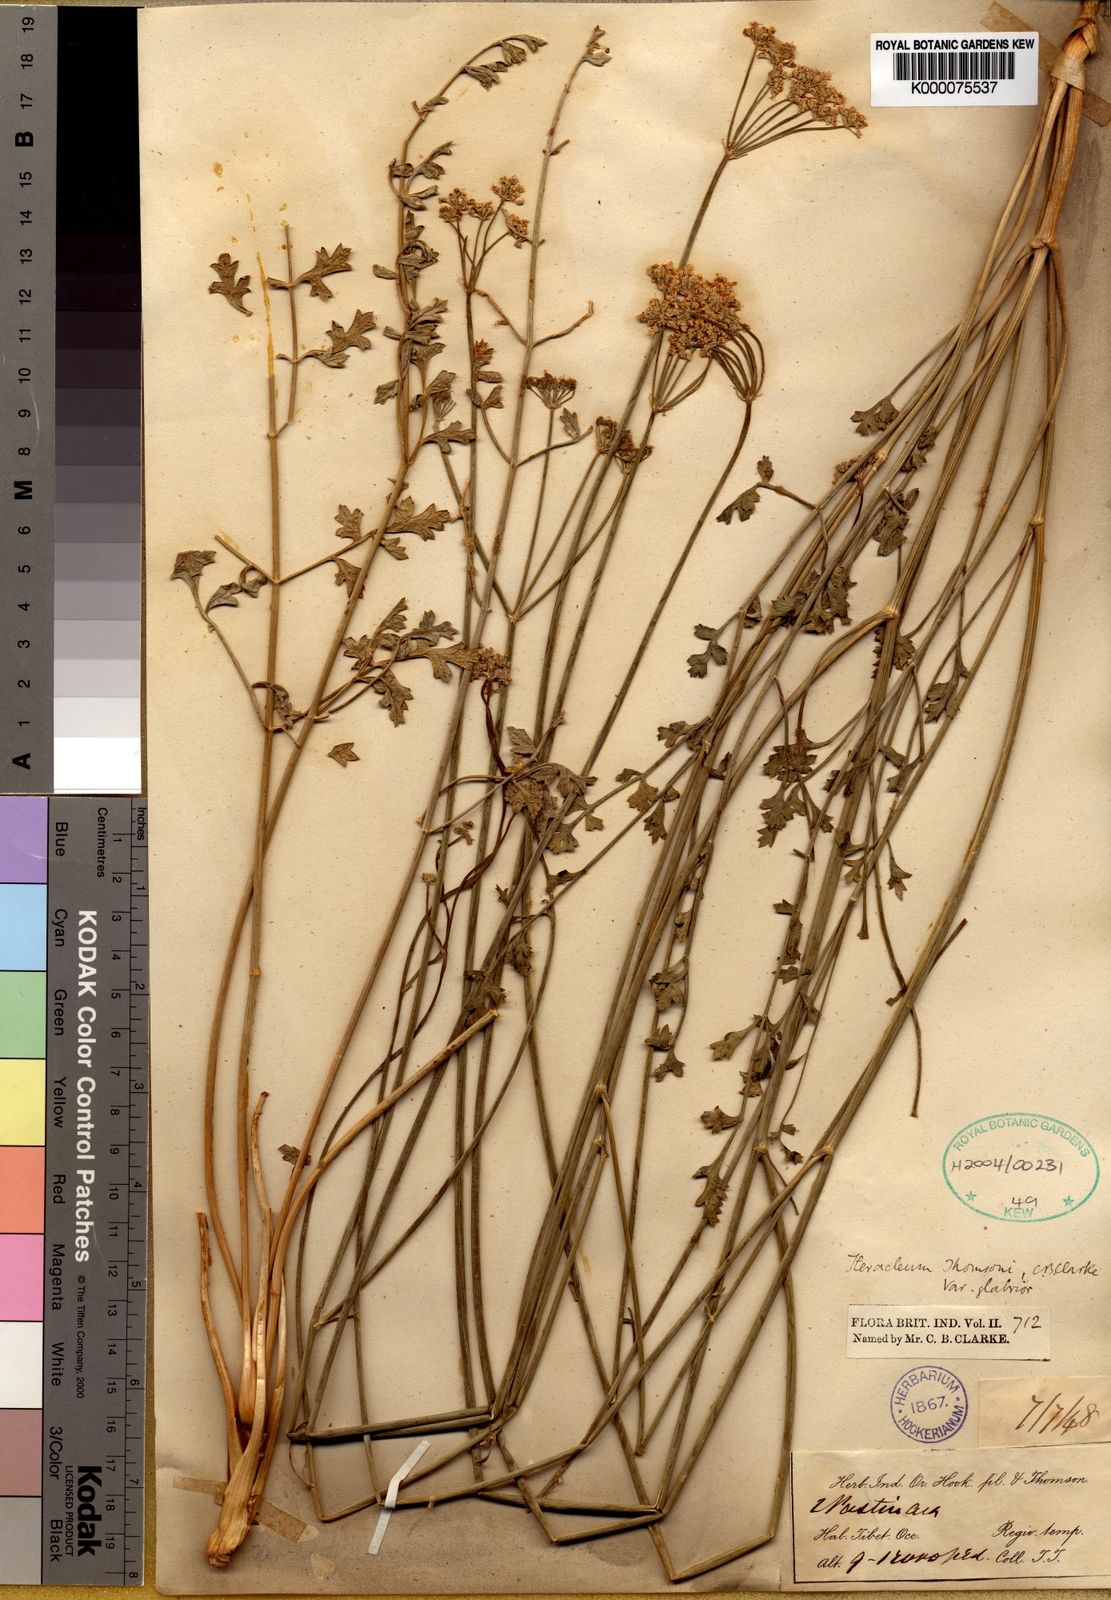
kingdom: Plantae
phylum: Tracheophyta
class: Magnoliopsida
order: Apiales
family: Apiaceae
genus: Semenovia
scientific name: Semenovia thomsonii
